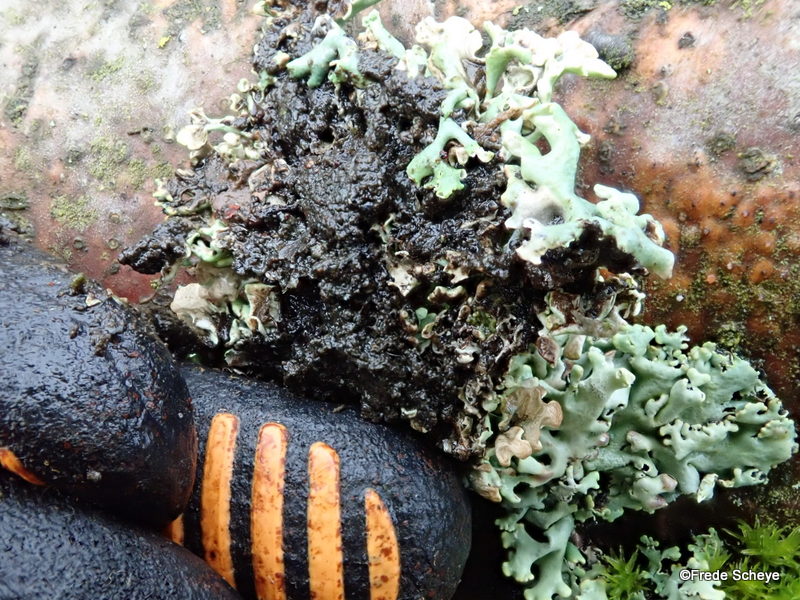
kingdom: Fungi
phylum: Ascomycota
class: Lecanoromycetes
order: Lecanorales
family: Parmeliaceae
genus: Hypogymnia
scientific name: Hypogymnia physodes
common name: almindelig kvistlav
